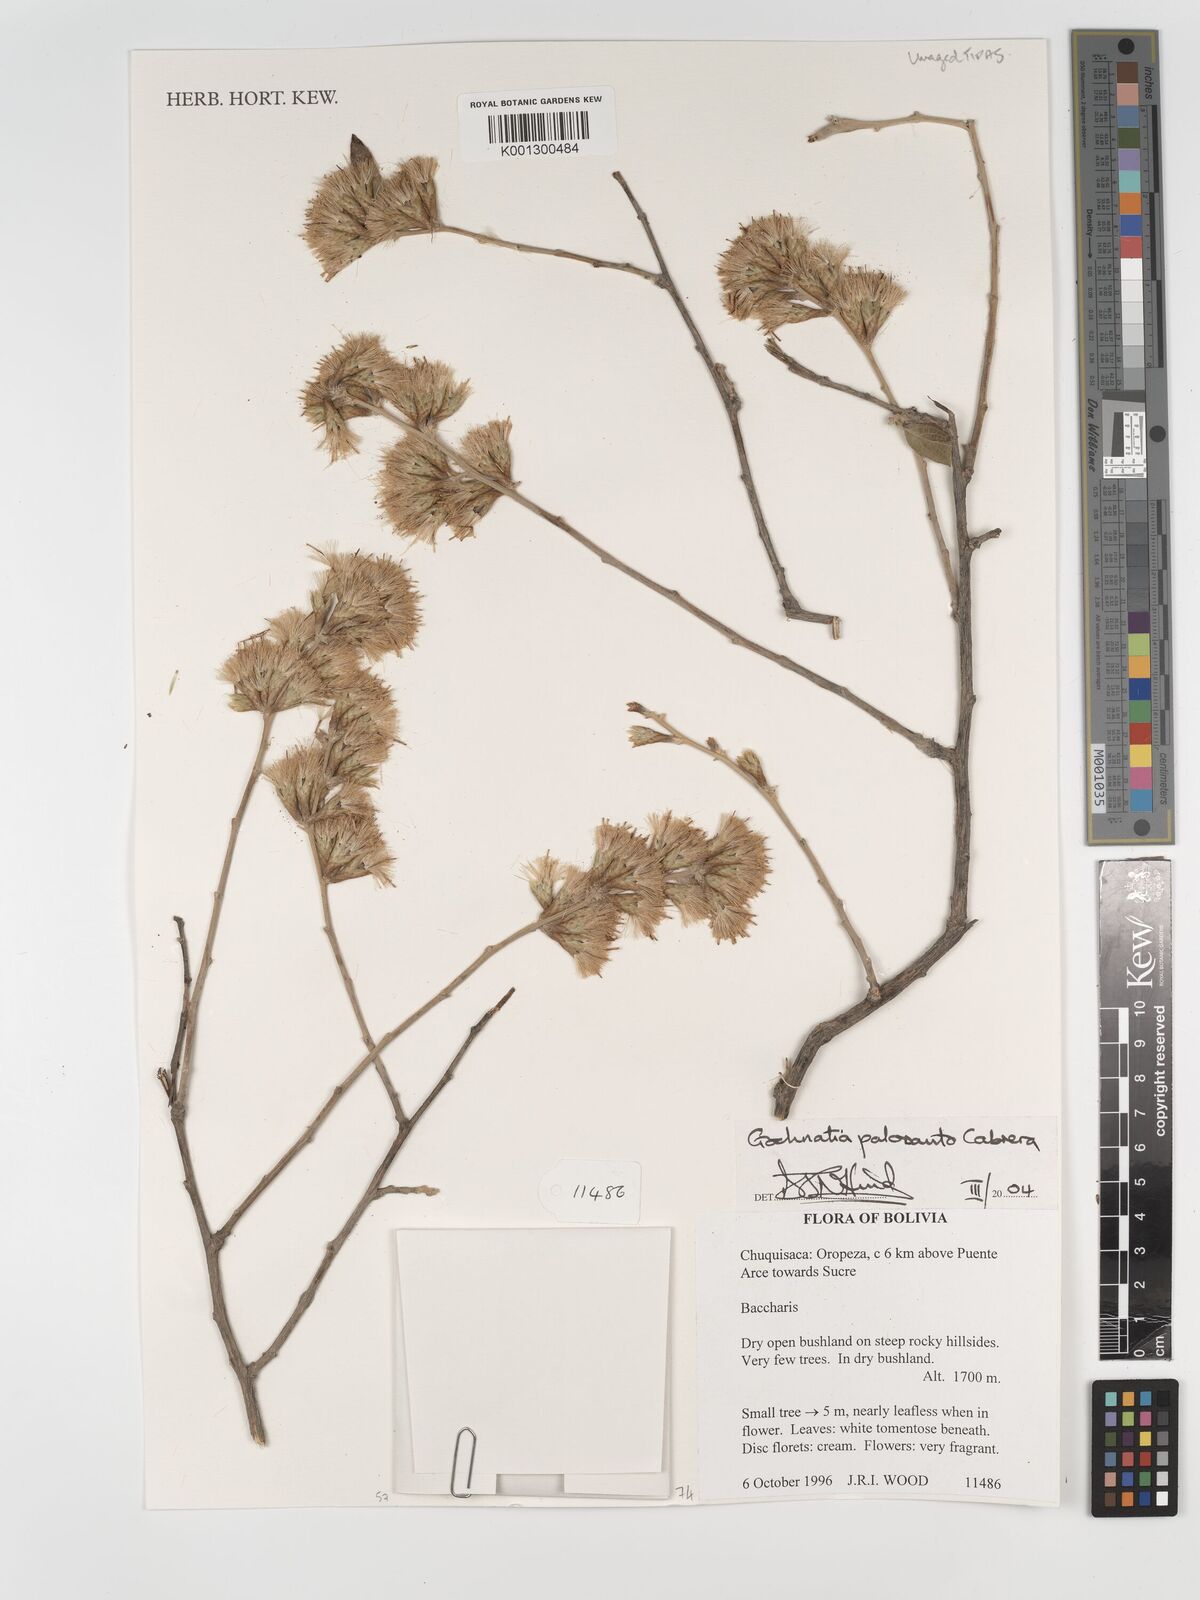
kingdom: Plantae
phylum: Tracheophyta
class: Magnoliopsida
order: Asterales
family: Asteraceae
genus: Gochnatia
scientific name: Gochnatia palosanto
